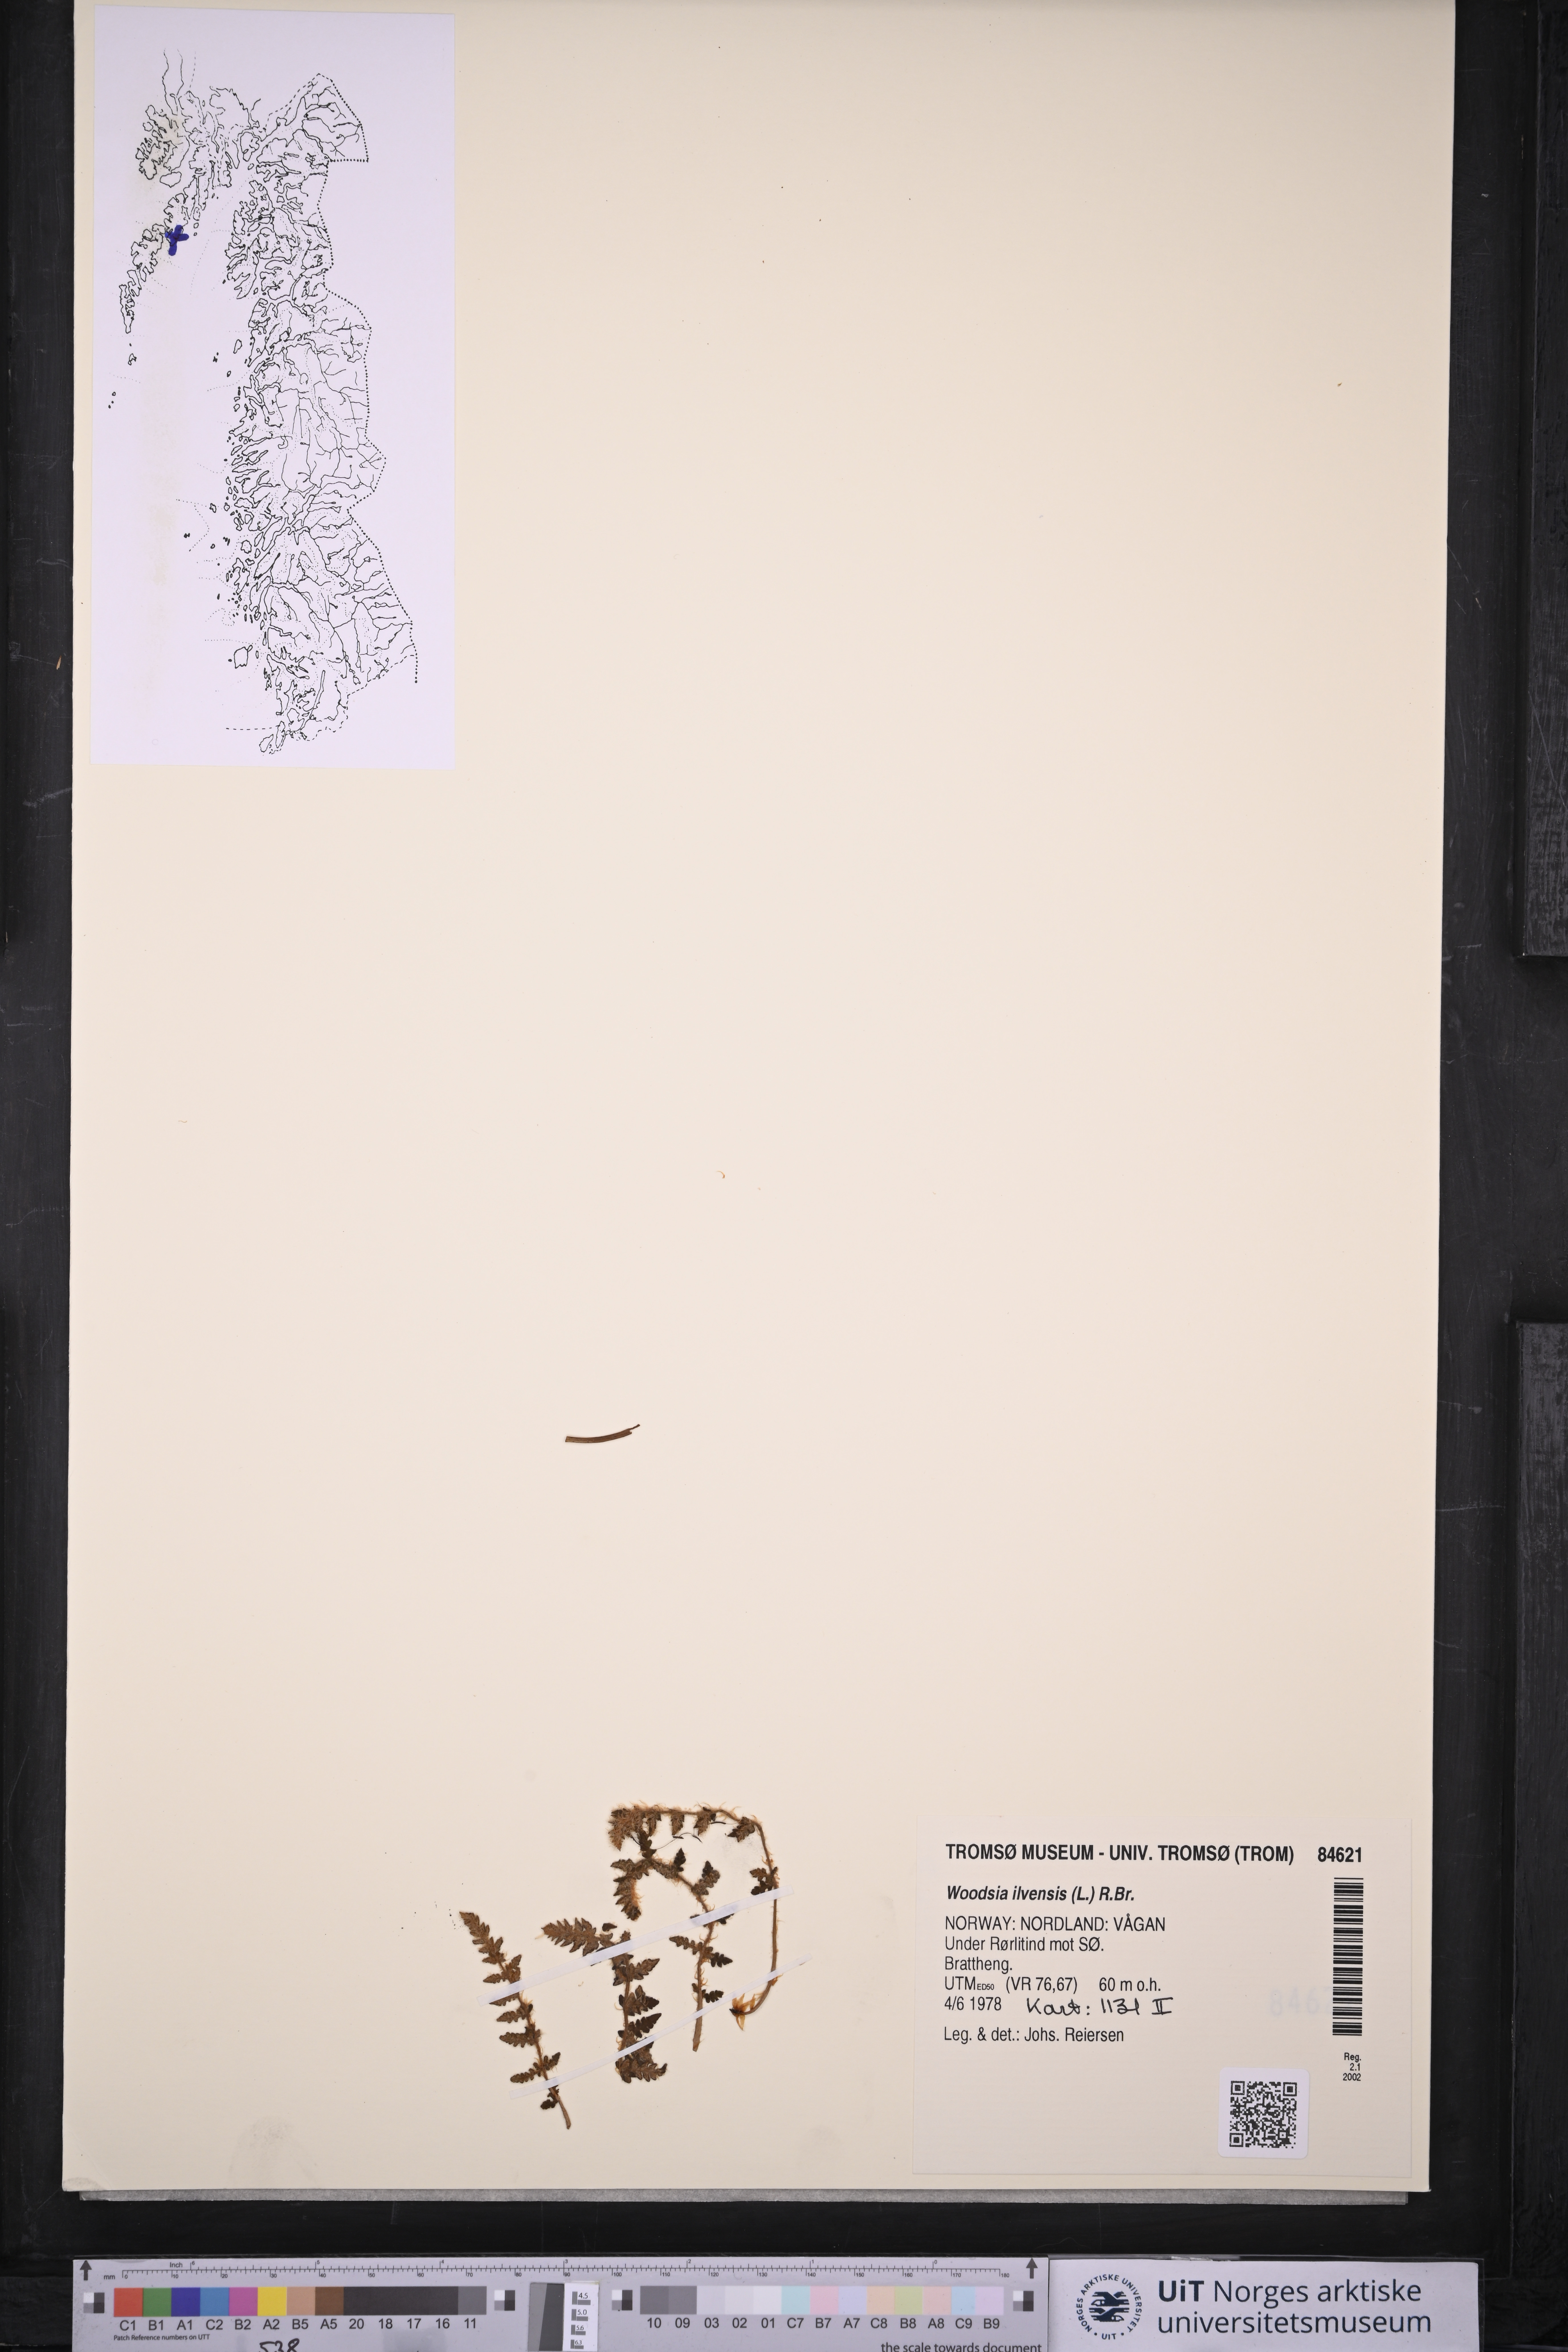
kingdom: Plantae
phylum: Tracheophyta
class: Polypodiopsida
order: Polypodiales
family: Woodsiaceae
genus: Woodsia
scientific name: Woodsia ilvensis
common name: Fragrant woodsia
